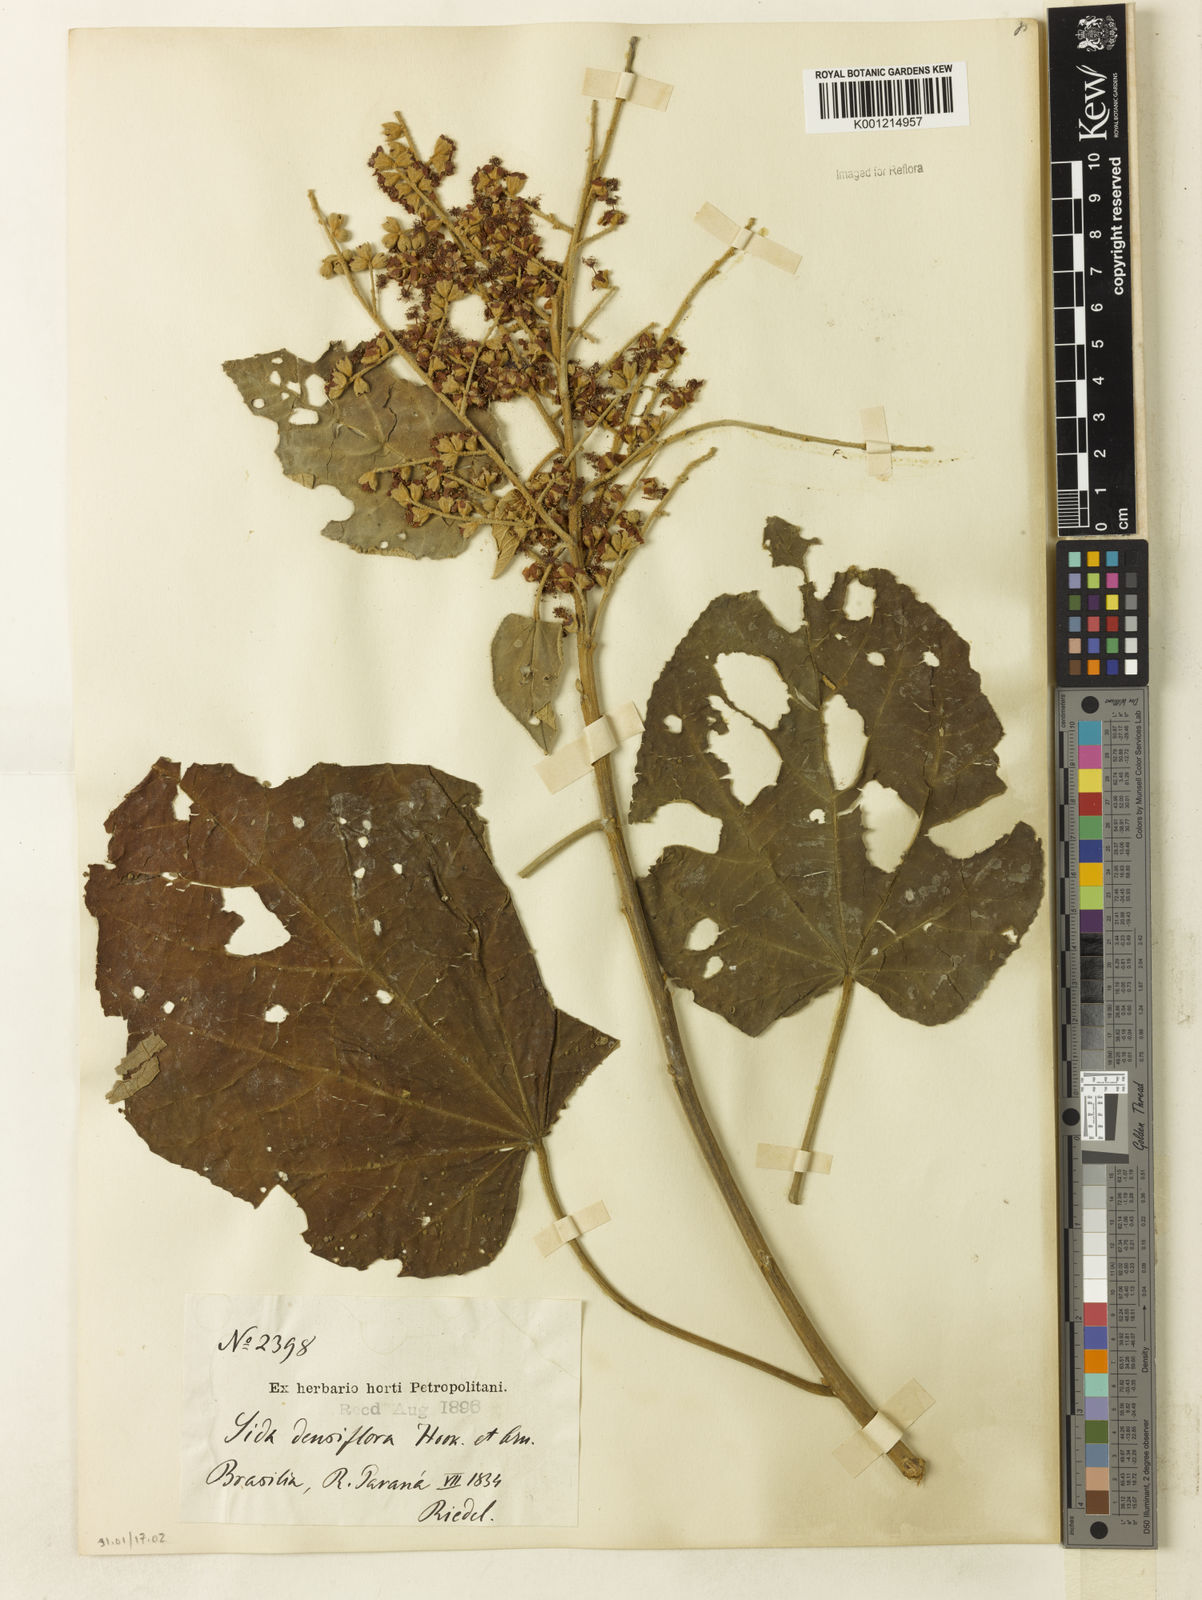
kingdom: Plantae
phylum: Tracheophyta
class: Magnoliopsida
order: Malvales
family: Malvaceae
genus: Bastardiopsis
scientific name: Bastardiopsis densiflora
